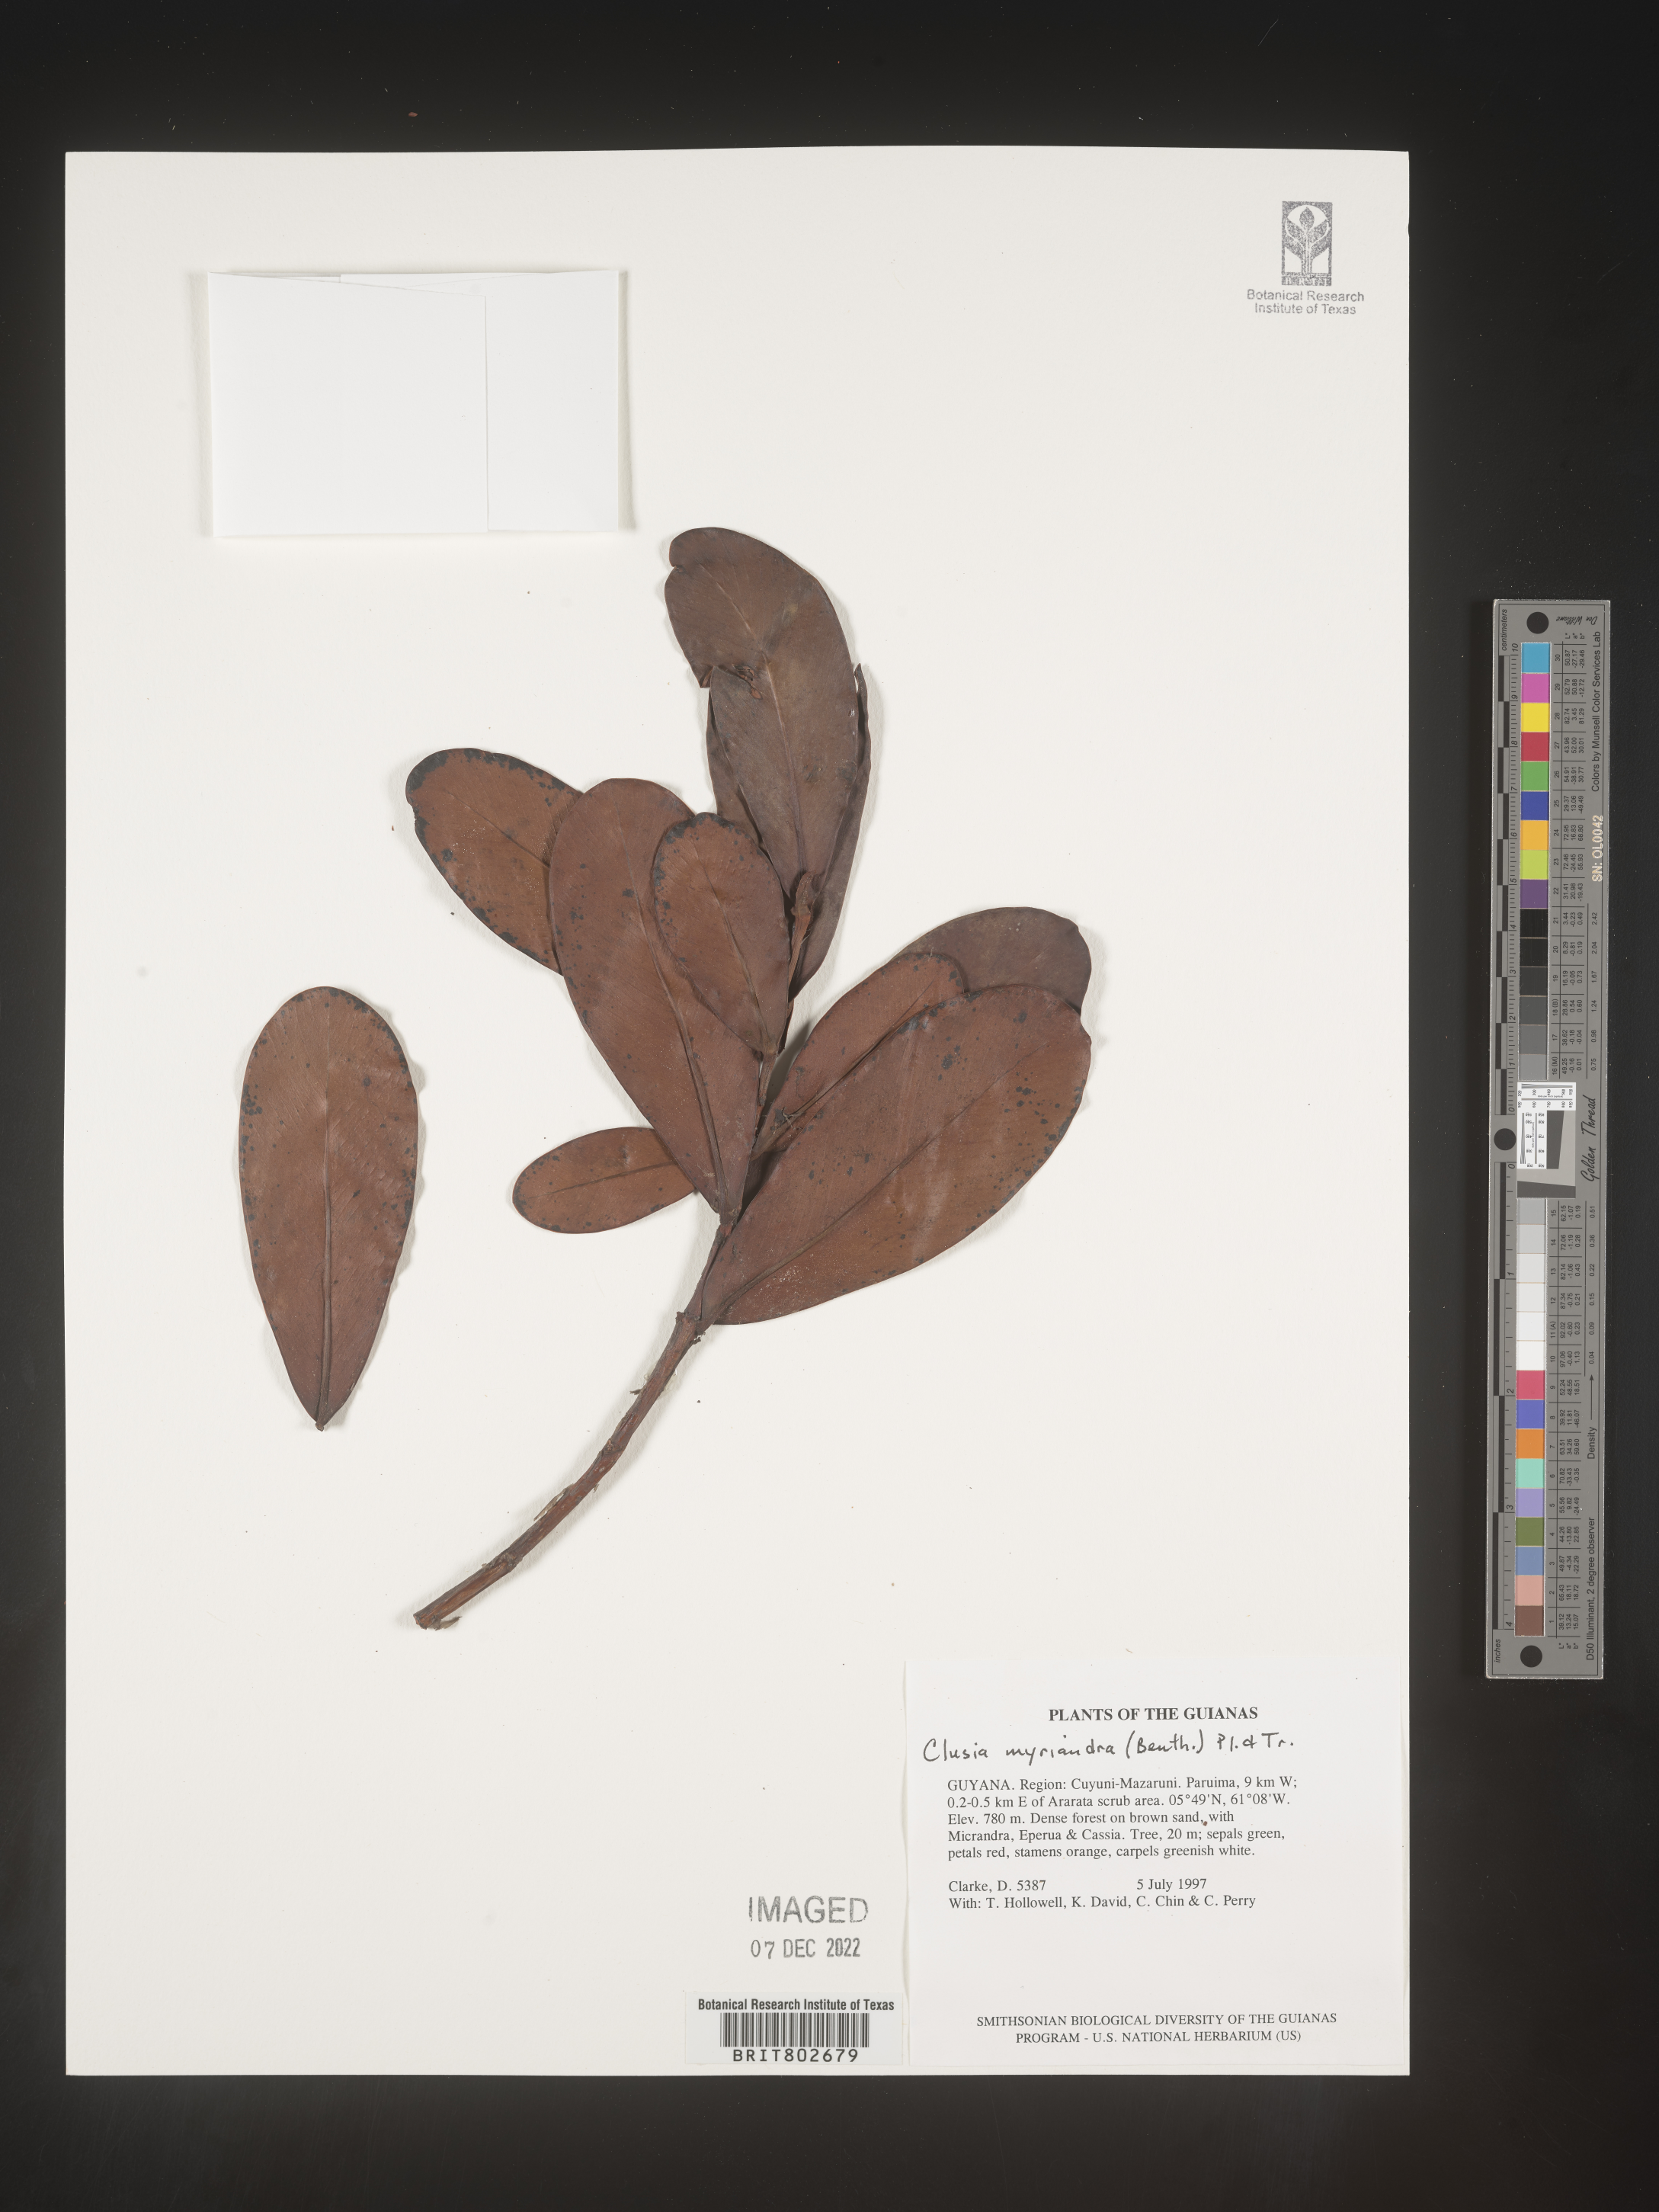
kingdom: Plantae
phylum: Tracheophyta
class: Magnoliopsida
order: Malpighiales
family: Clusiaceae
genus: Clusia
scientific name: Clusia myriandra
